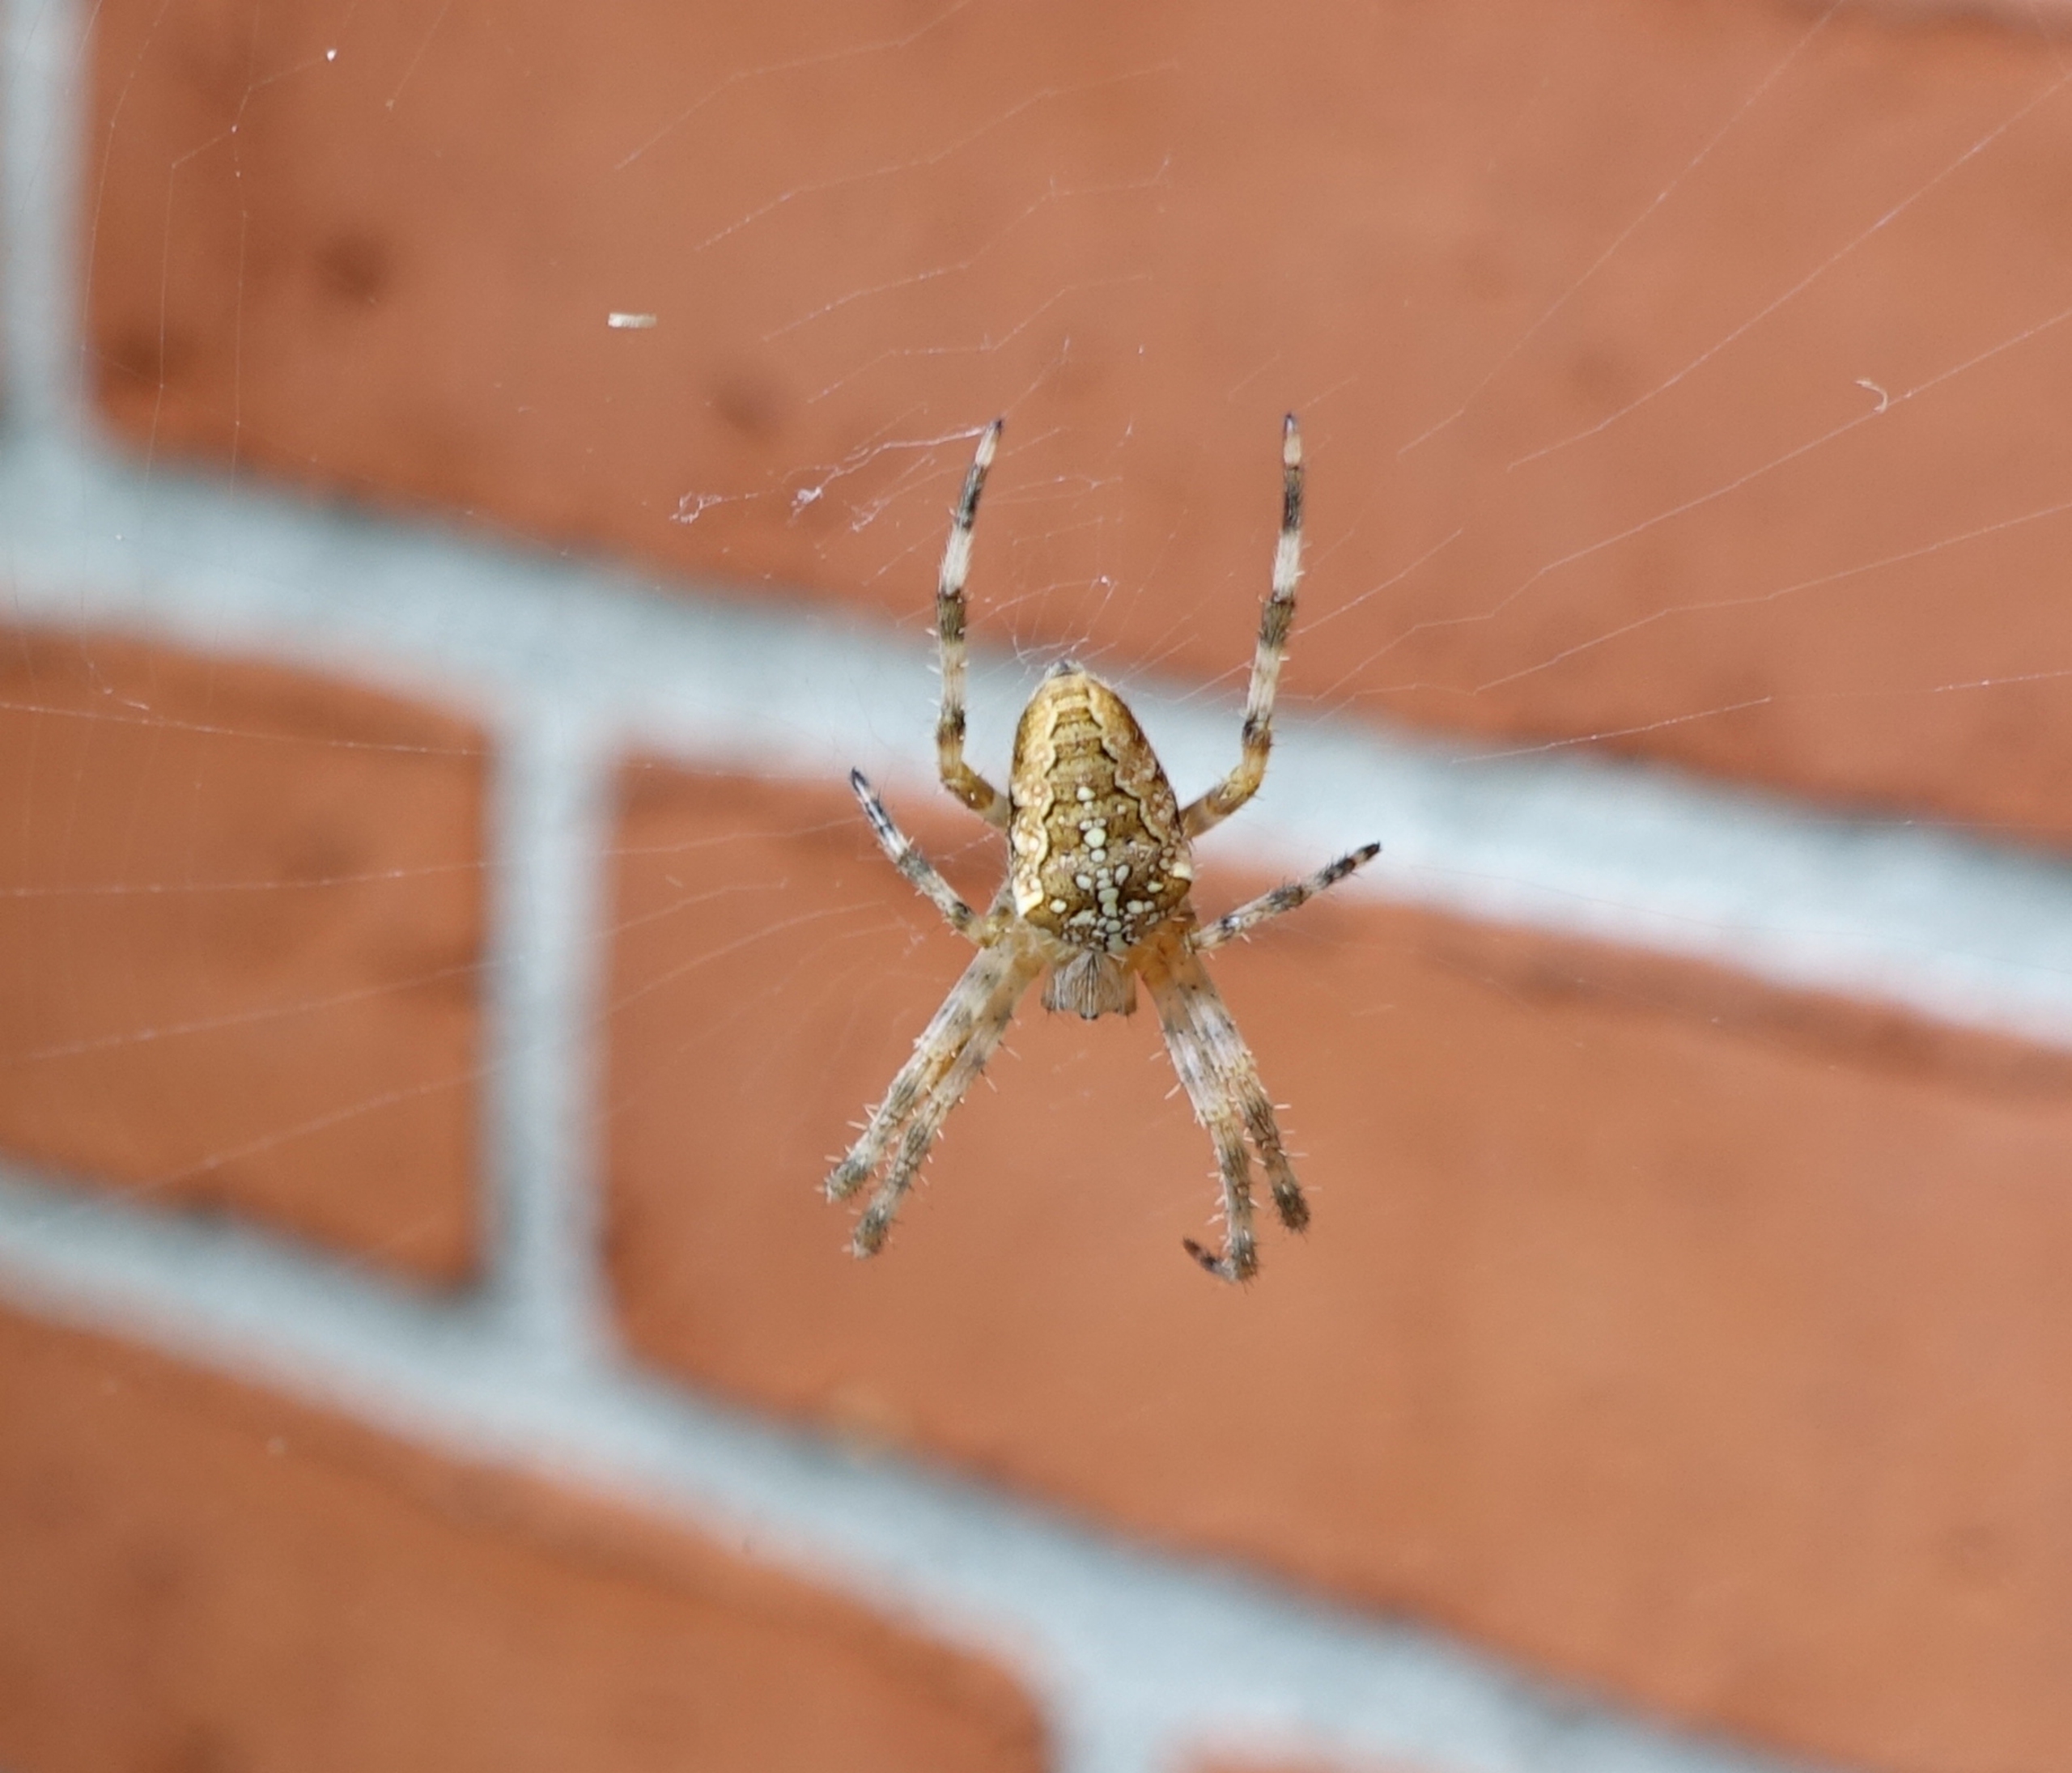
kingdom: Animalia
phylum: Arthropoda
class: Arachnida
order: Araneae
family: Araneidae
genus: Araneus
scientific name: Araneus diadematus
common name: Korsedderkop
